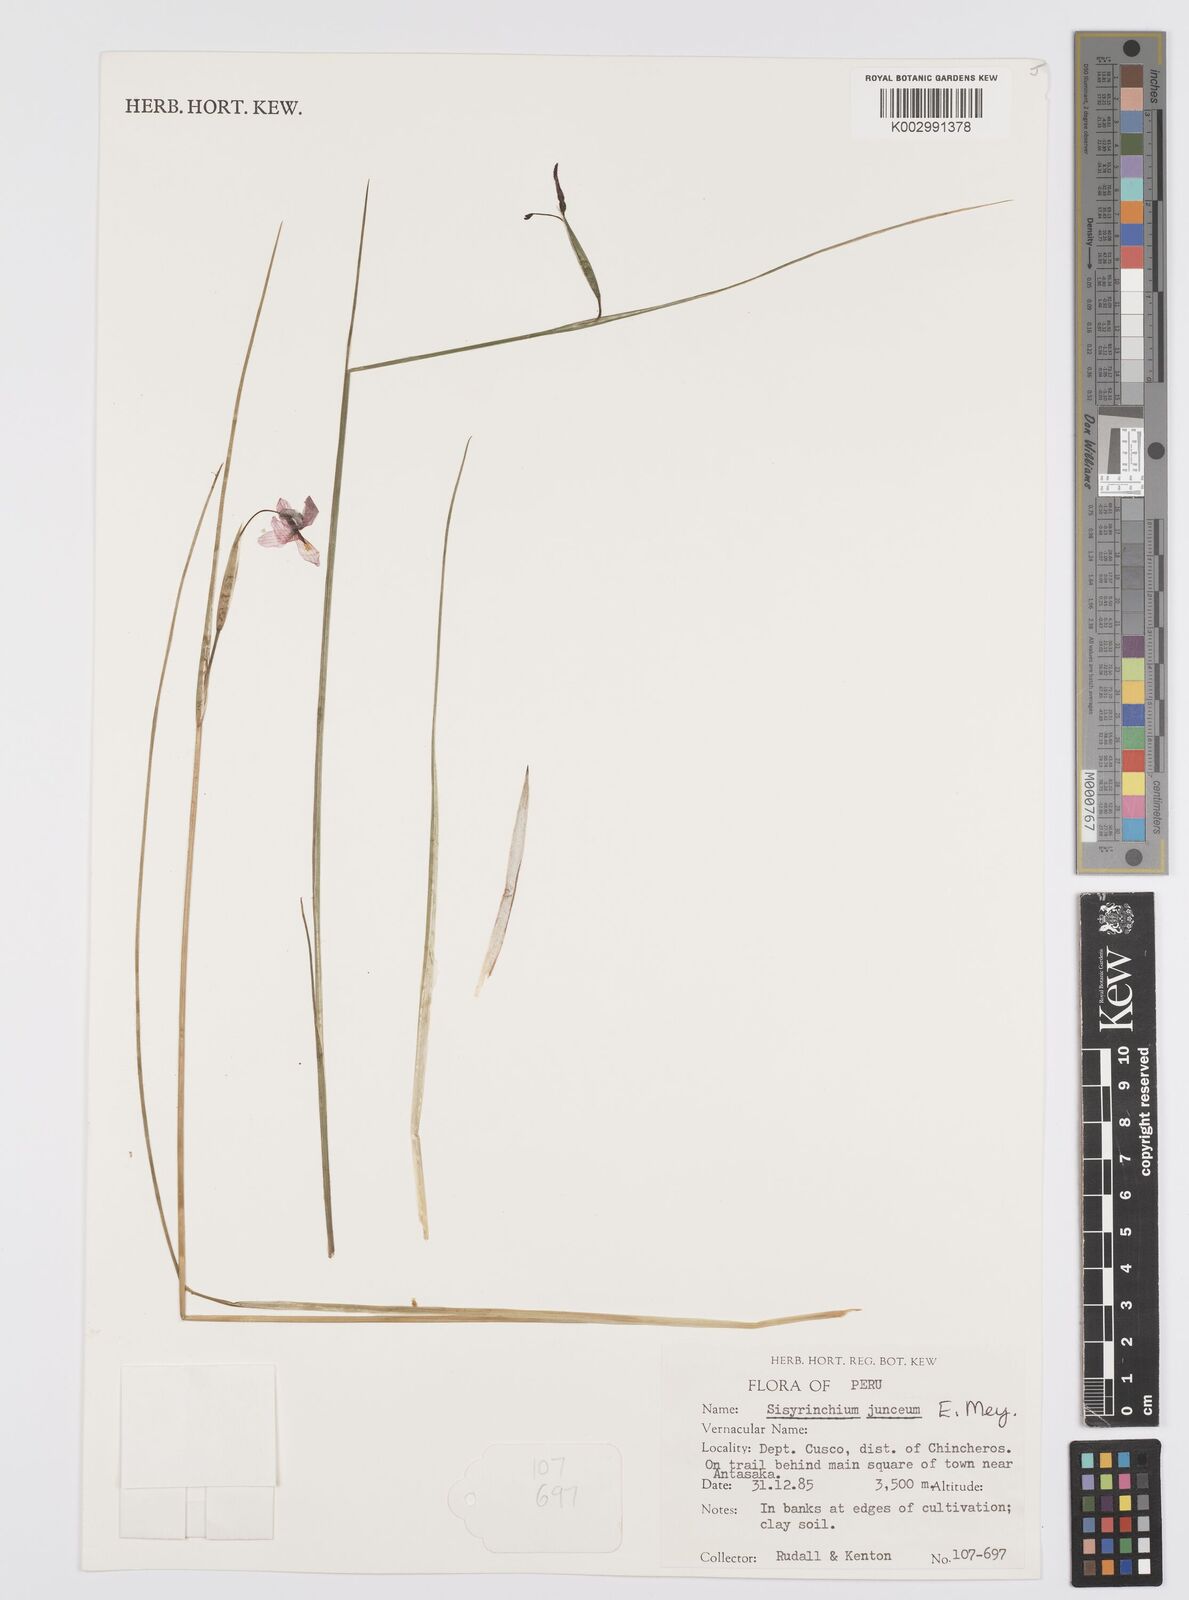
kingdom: Plantae
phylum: Tracheophyta
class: Liliopsida
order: Asparagales
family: Iridaceae
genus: Olsynium
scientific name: Olsynium
